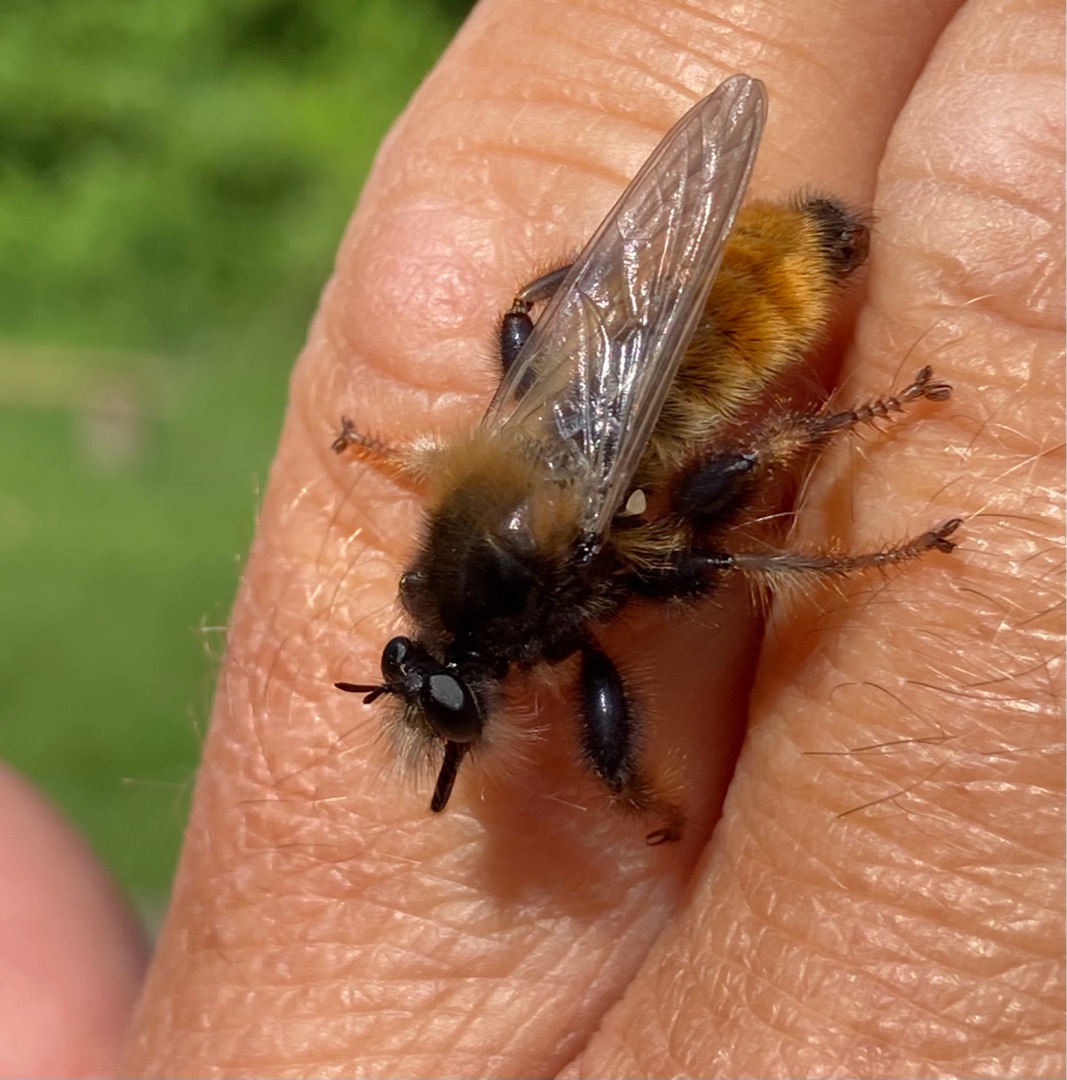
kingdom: Animalia
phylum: Arthropoda
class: Insecta
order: Diptera
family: Asilidae
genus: Laphria
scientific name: Laphria flava
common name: Gul vedrovflue
